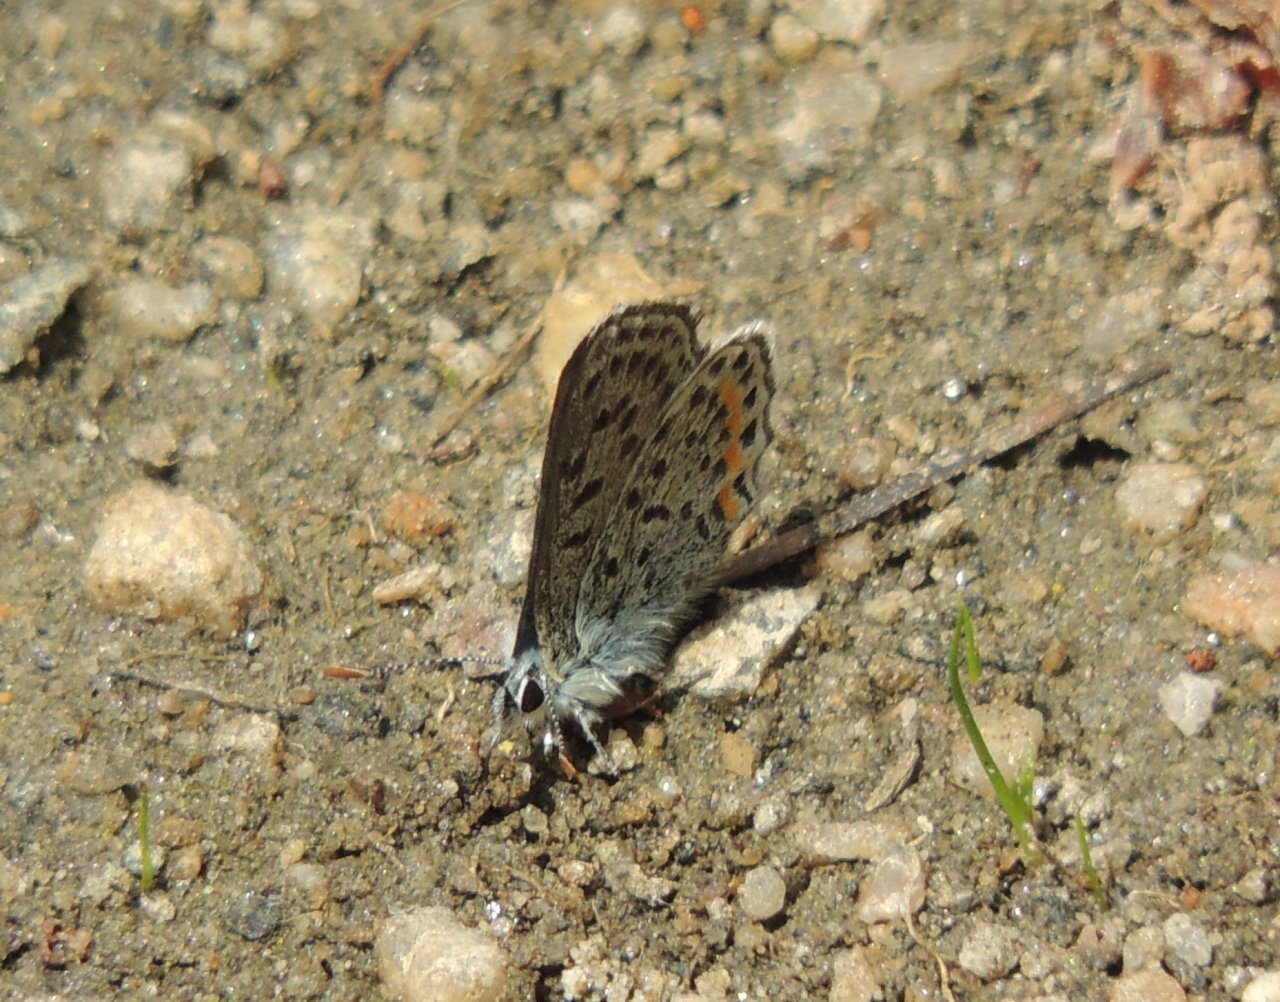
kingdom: Animalia
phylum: Arthropoda
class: Insecta
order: Lepidoptera
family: Lycaenidae
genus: Euphilotes
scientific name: Euphilotes battoides
